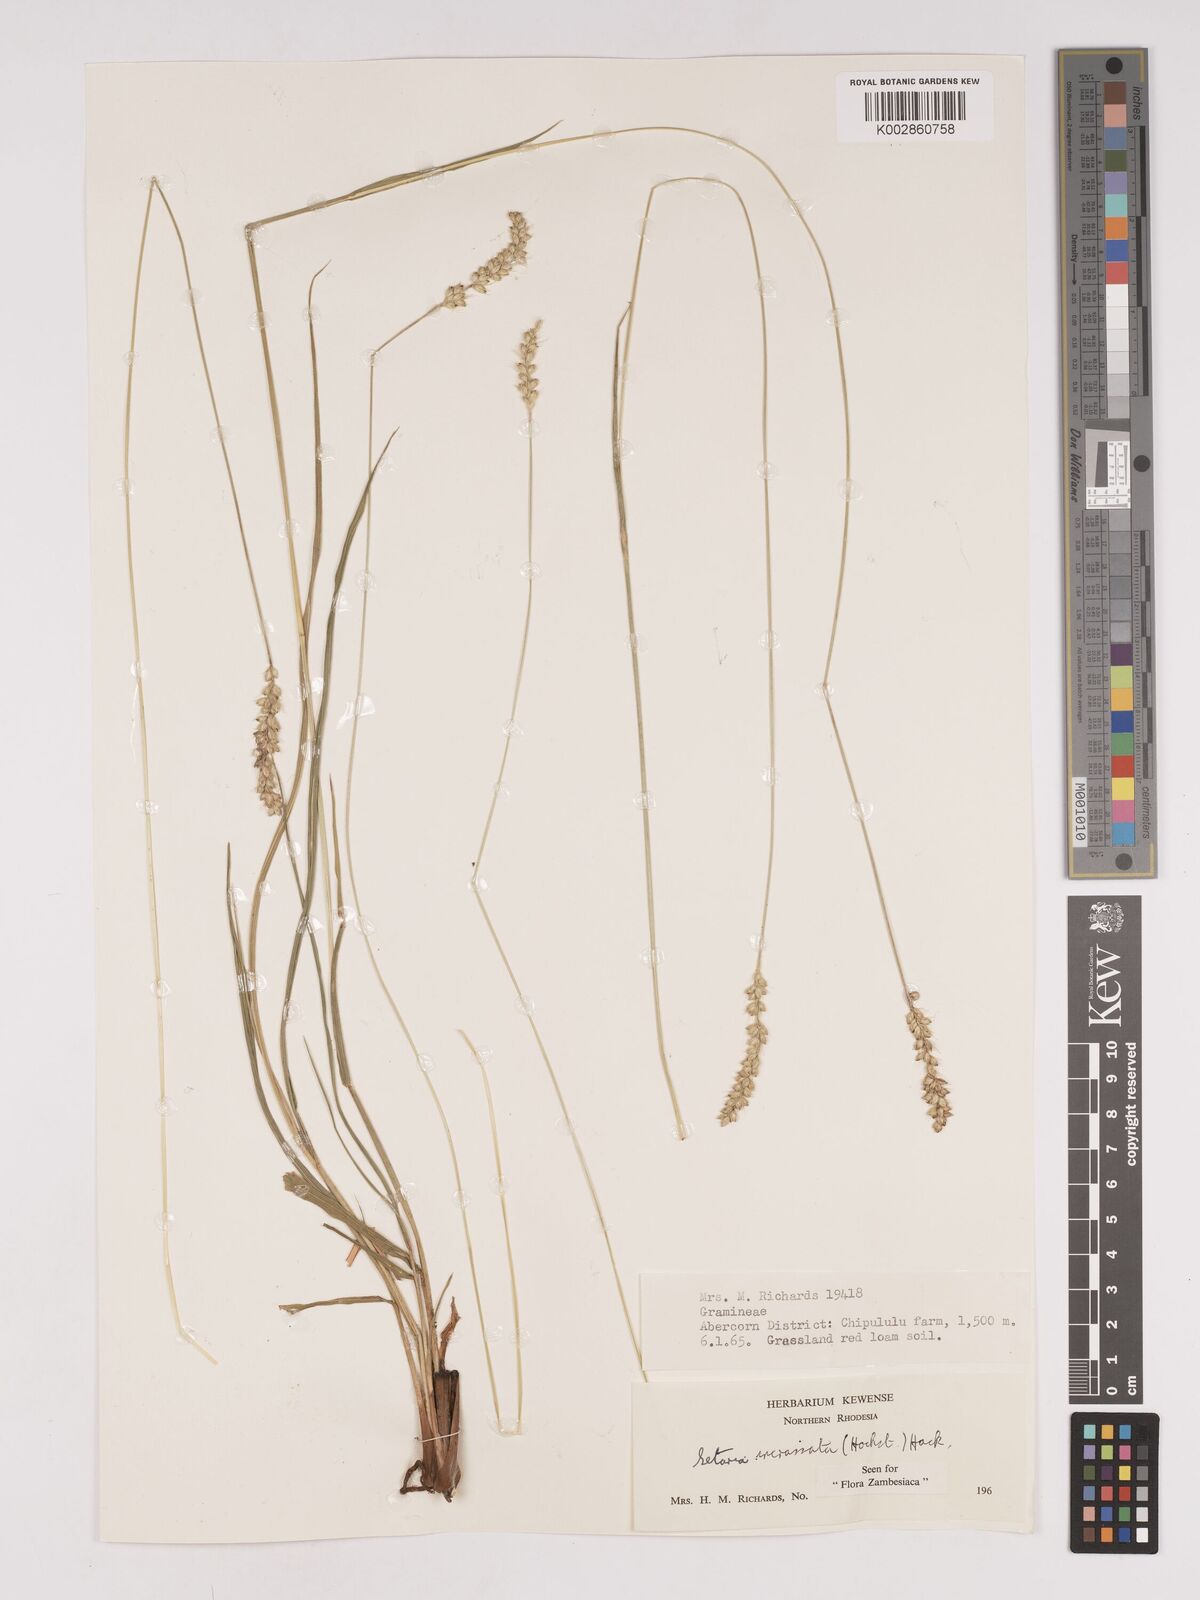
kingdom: Plantae
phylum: Tracheophyta
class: Liliopsida
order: Poales
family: Poaceae
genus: Setaria
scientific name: Setaria incrassata
